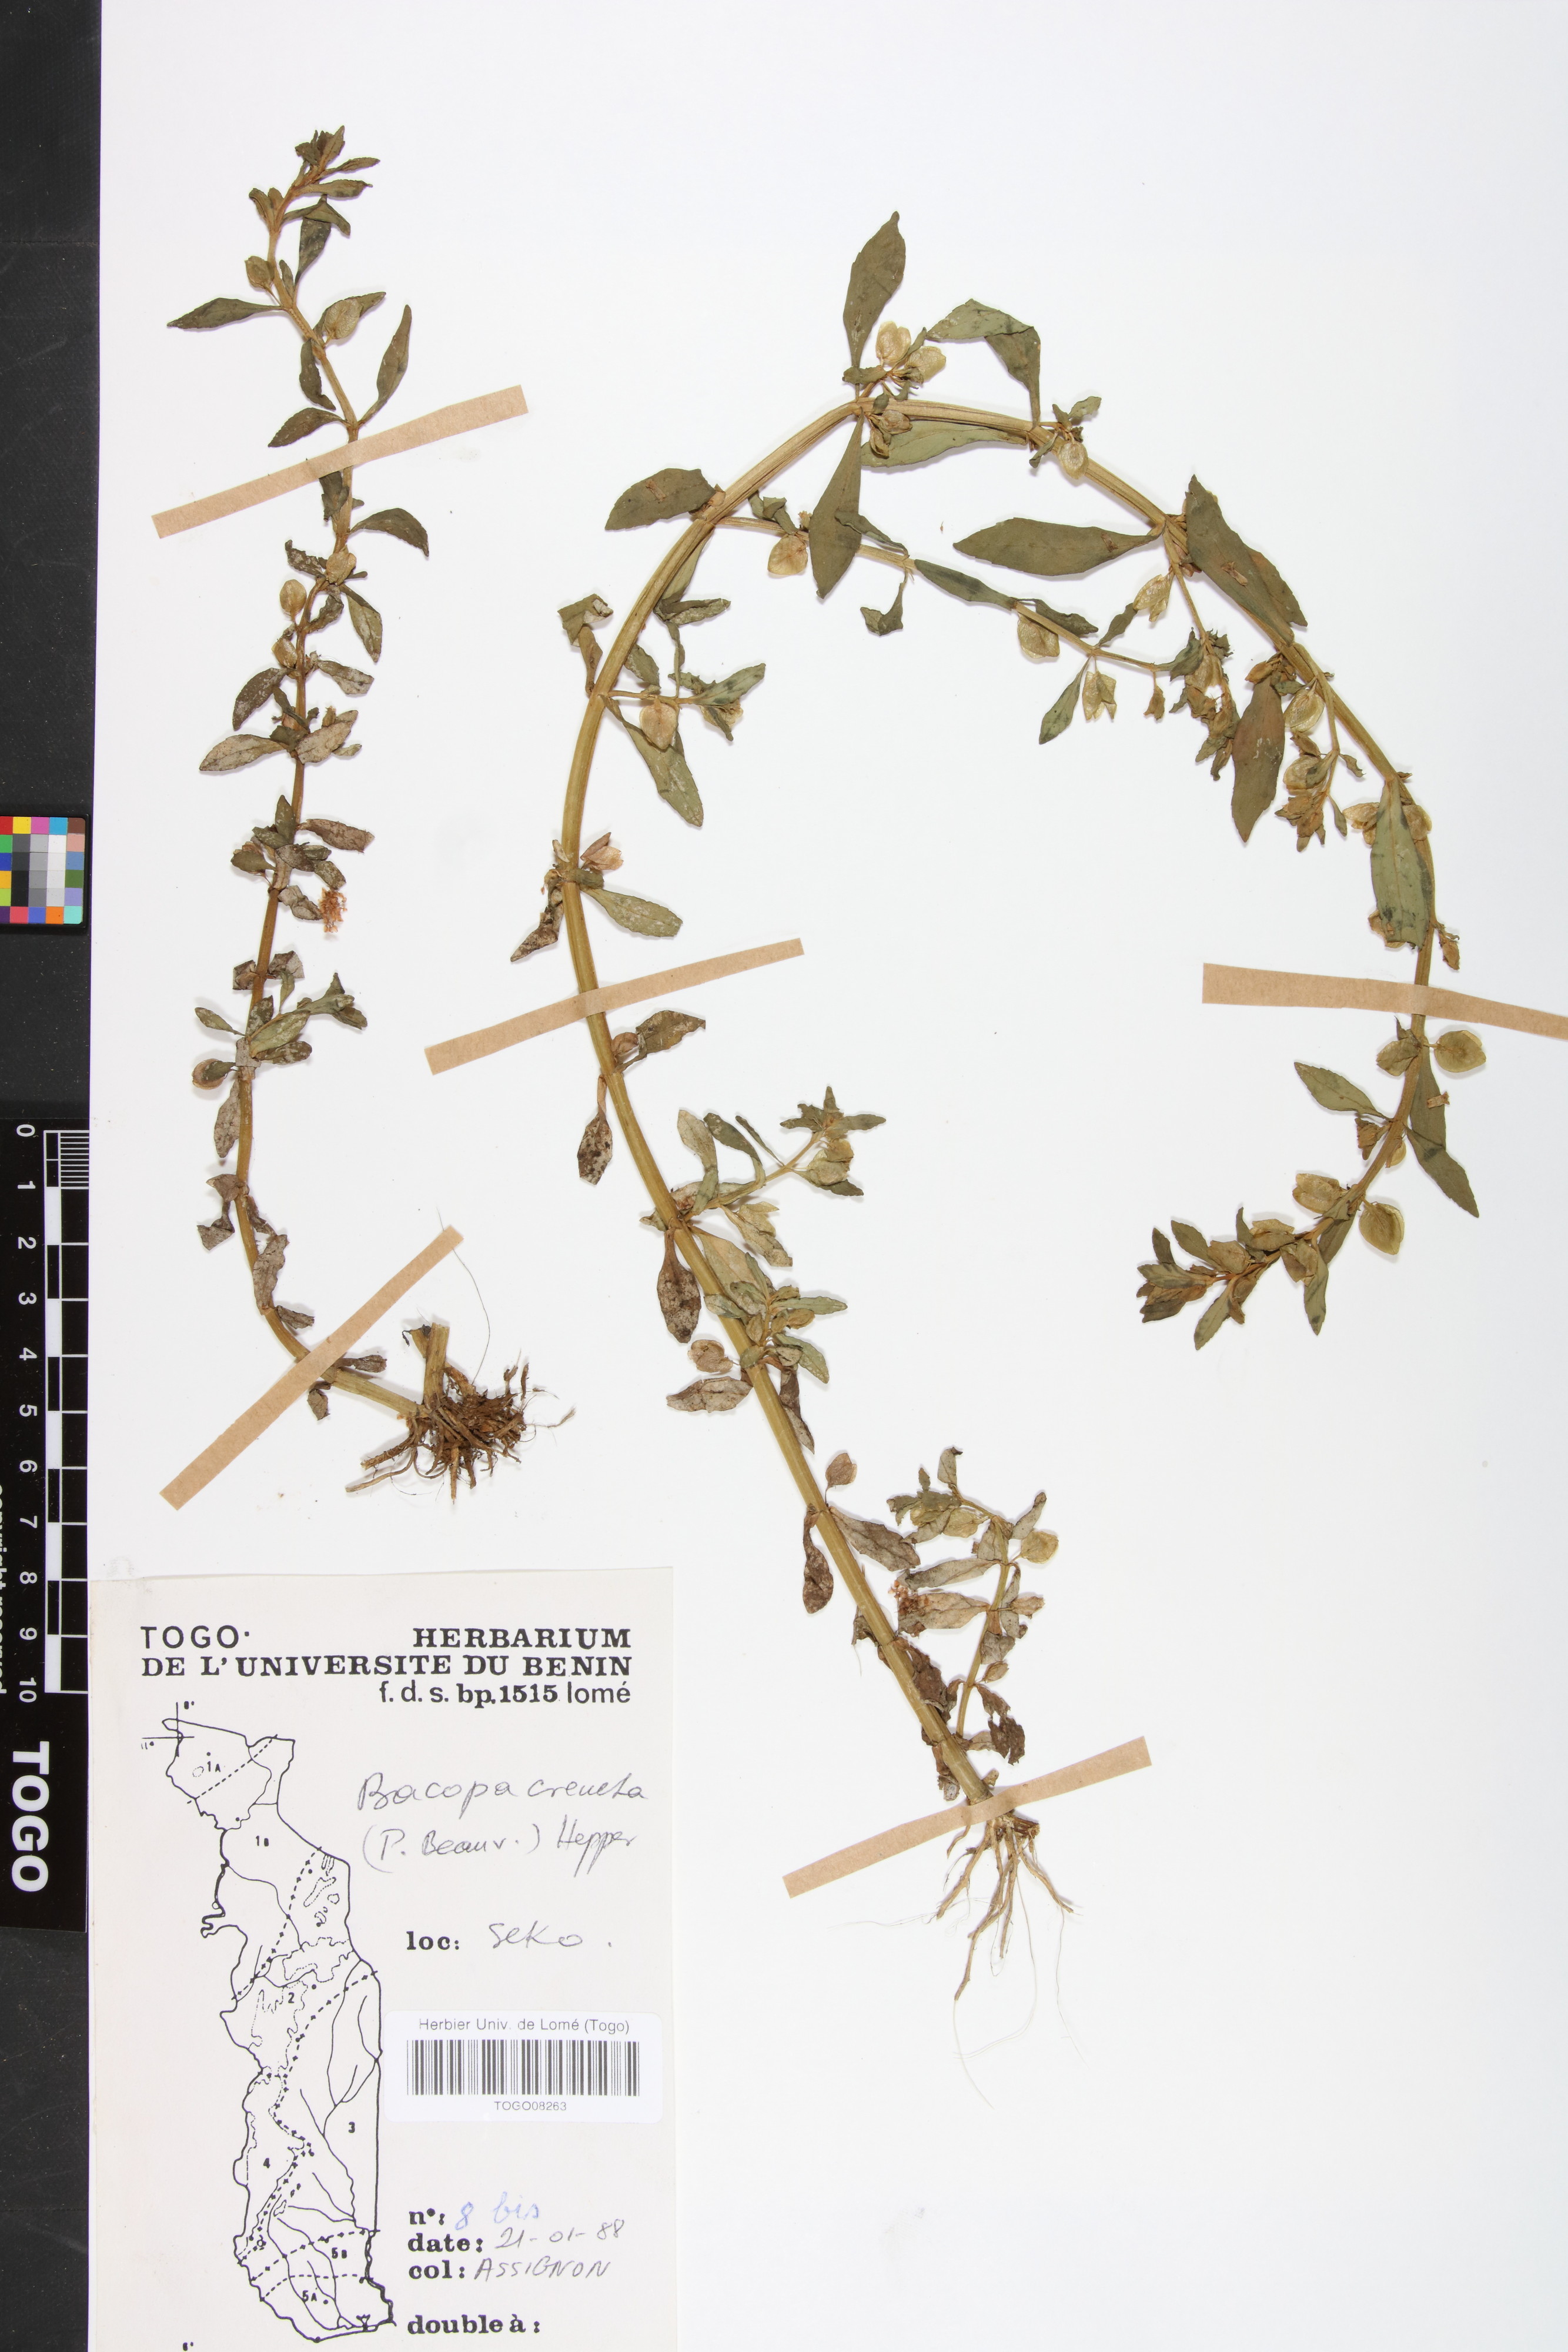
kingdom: Plantae
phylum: Tracheophyta
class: Magnoliopsida
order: Lamiales
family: Plantaginaceae
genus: Bacopa
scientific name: Bacopa crenata
